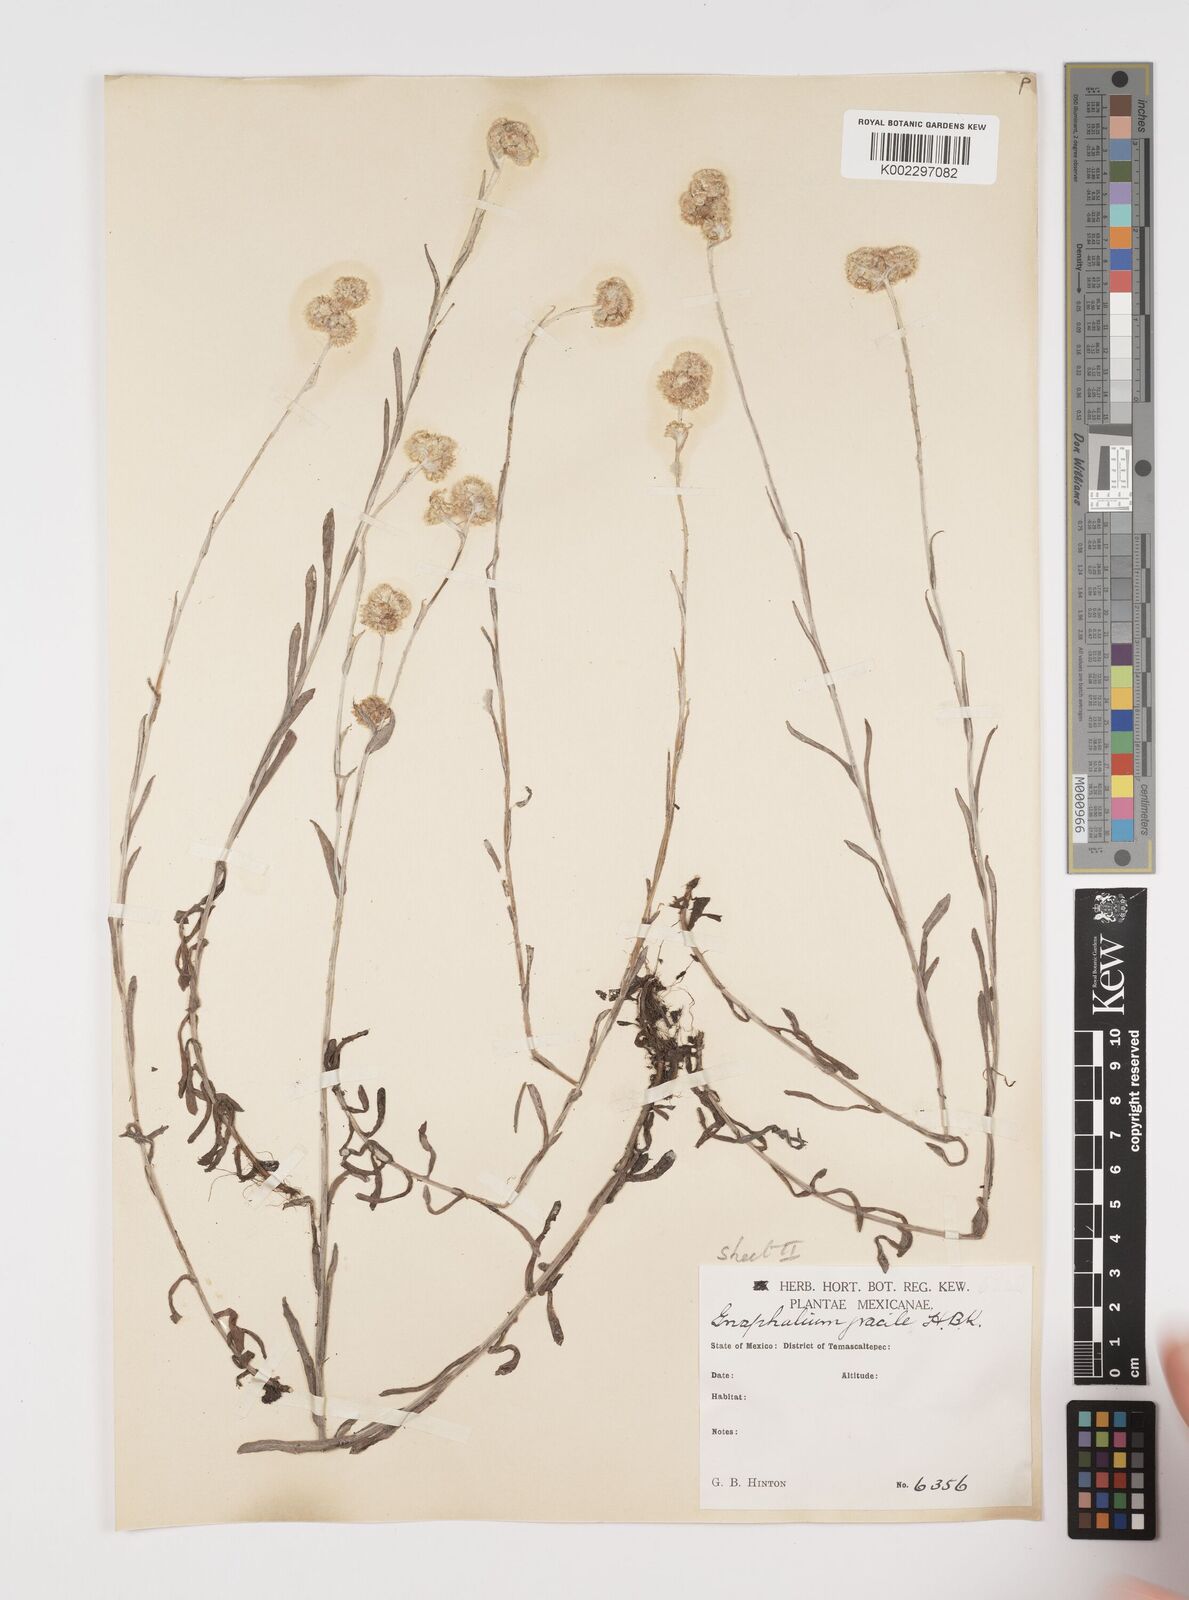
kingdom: Plantae
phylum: Tracheophyta
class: Magnoliopsida
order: Asterales
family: Asteraceae
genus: Pseudognaphalium
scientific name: Pseudognaphalium
